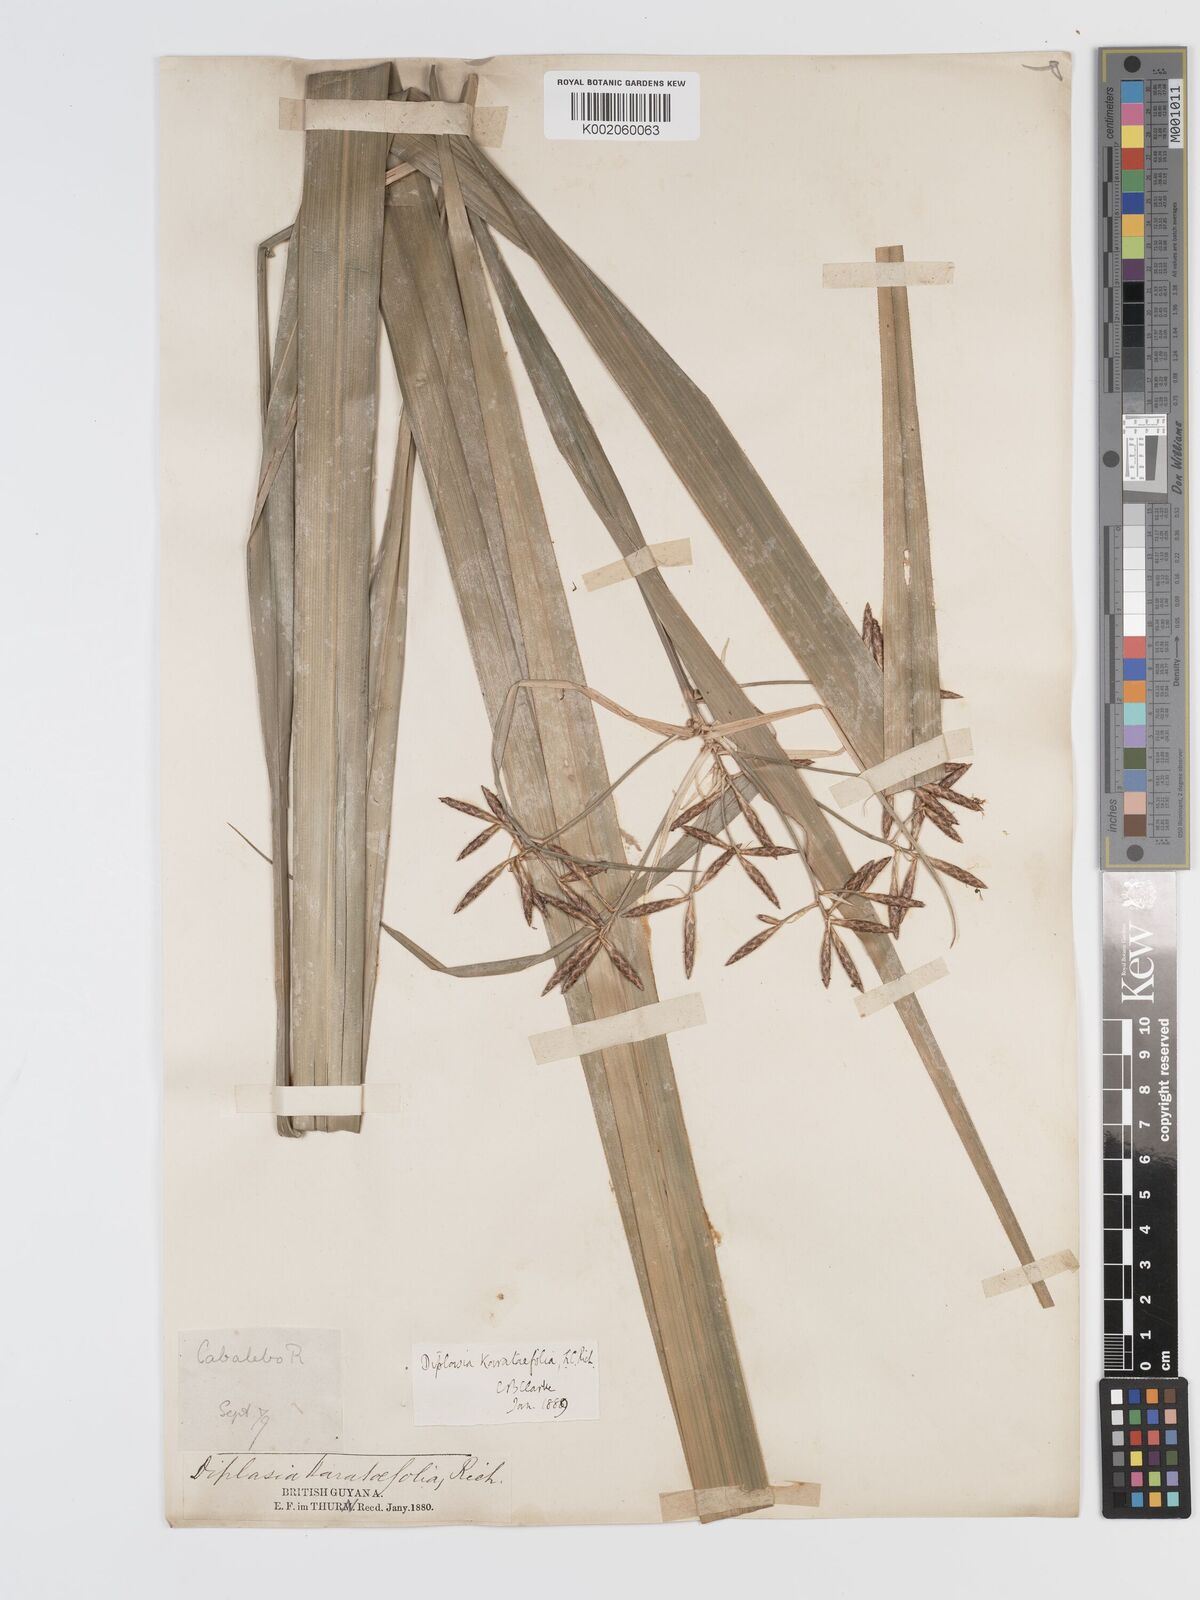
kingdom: Plantae
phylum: Tracheophyta
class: Liliopsida
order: Poales
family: Cyperaceae
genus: Diplasia
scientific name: Diplasia karatifolia
